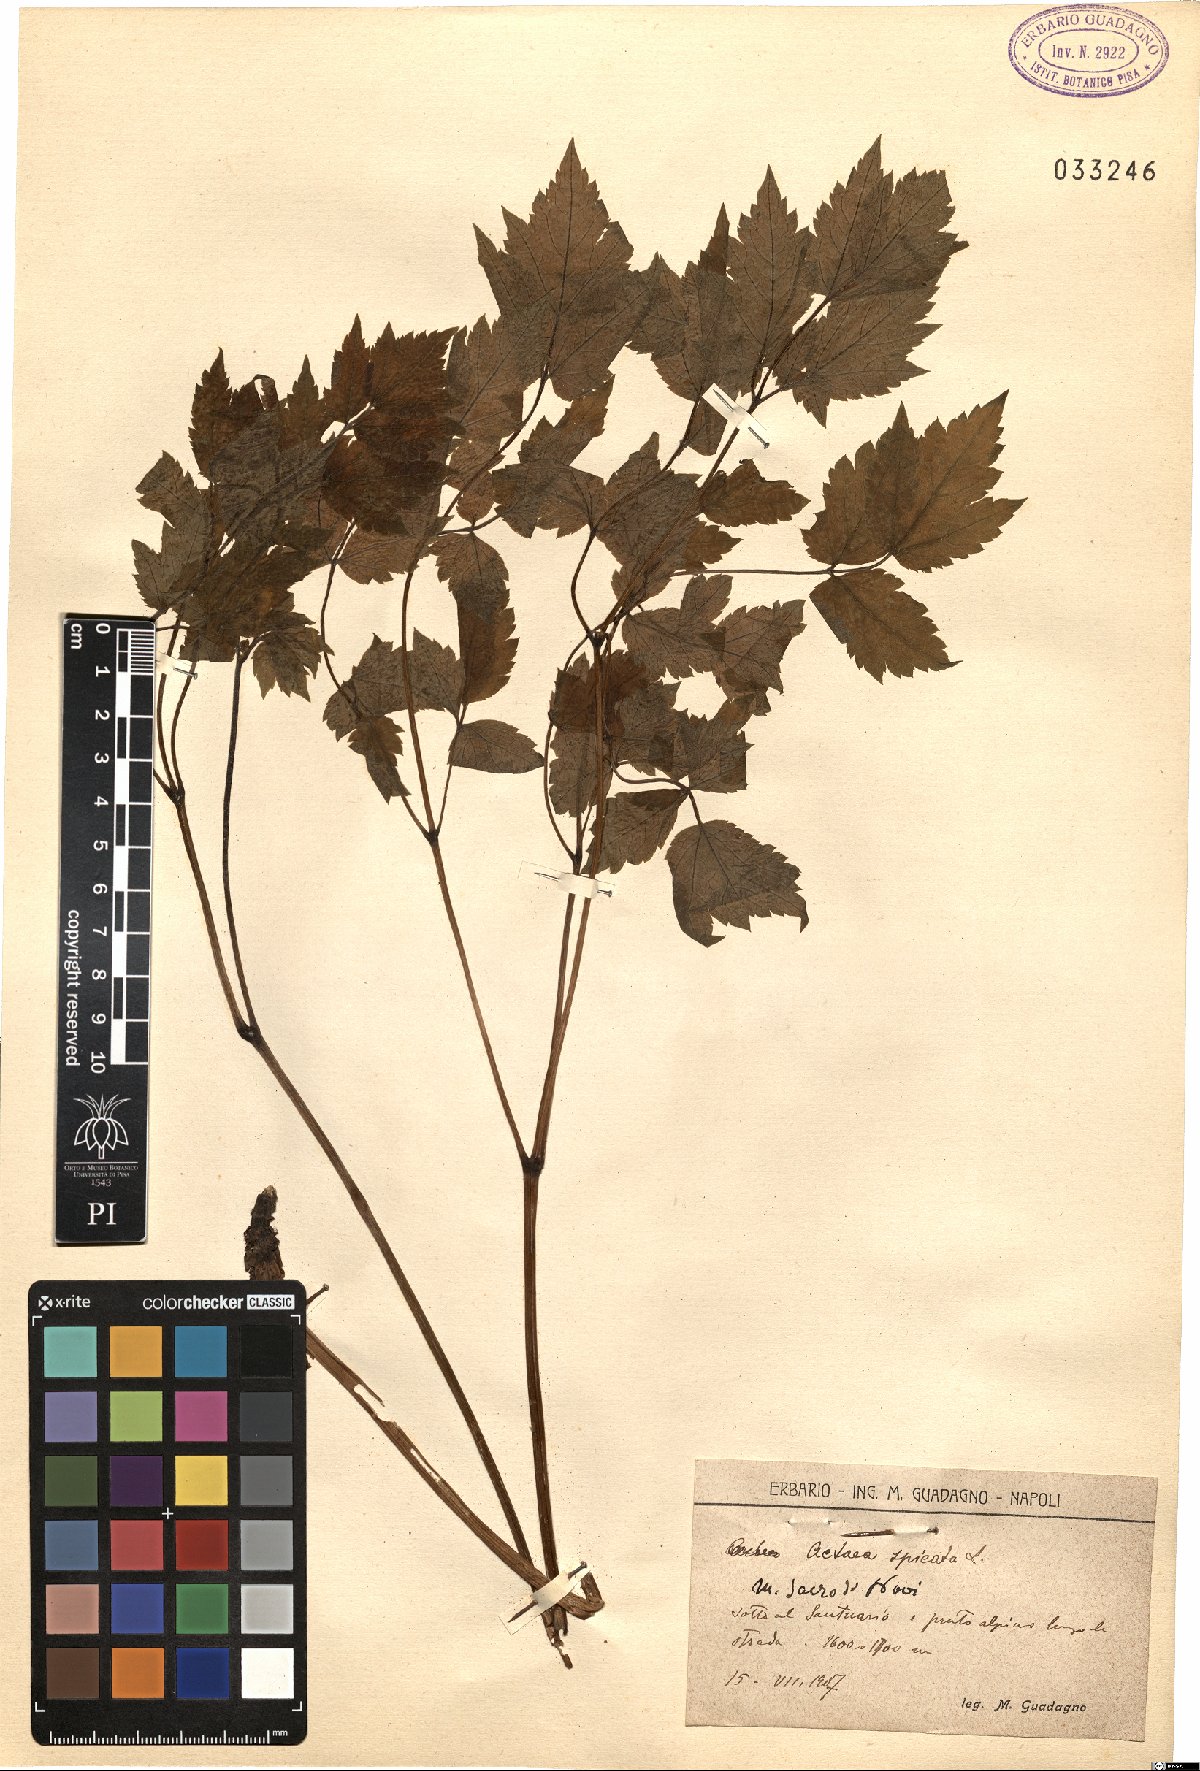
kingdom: Plantae
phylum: Tracheophyta
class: Magnoliopsida
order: Ranunculales
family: Ranunculaceae
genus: Actaea
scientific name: Actaea spicata
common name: Baneberry
